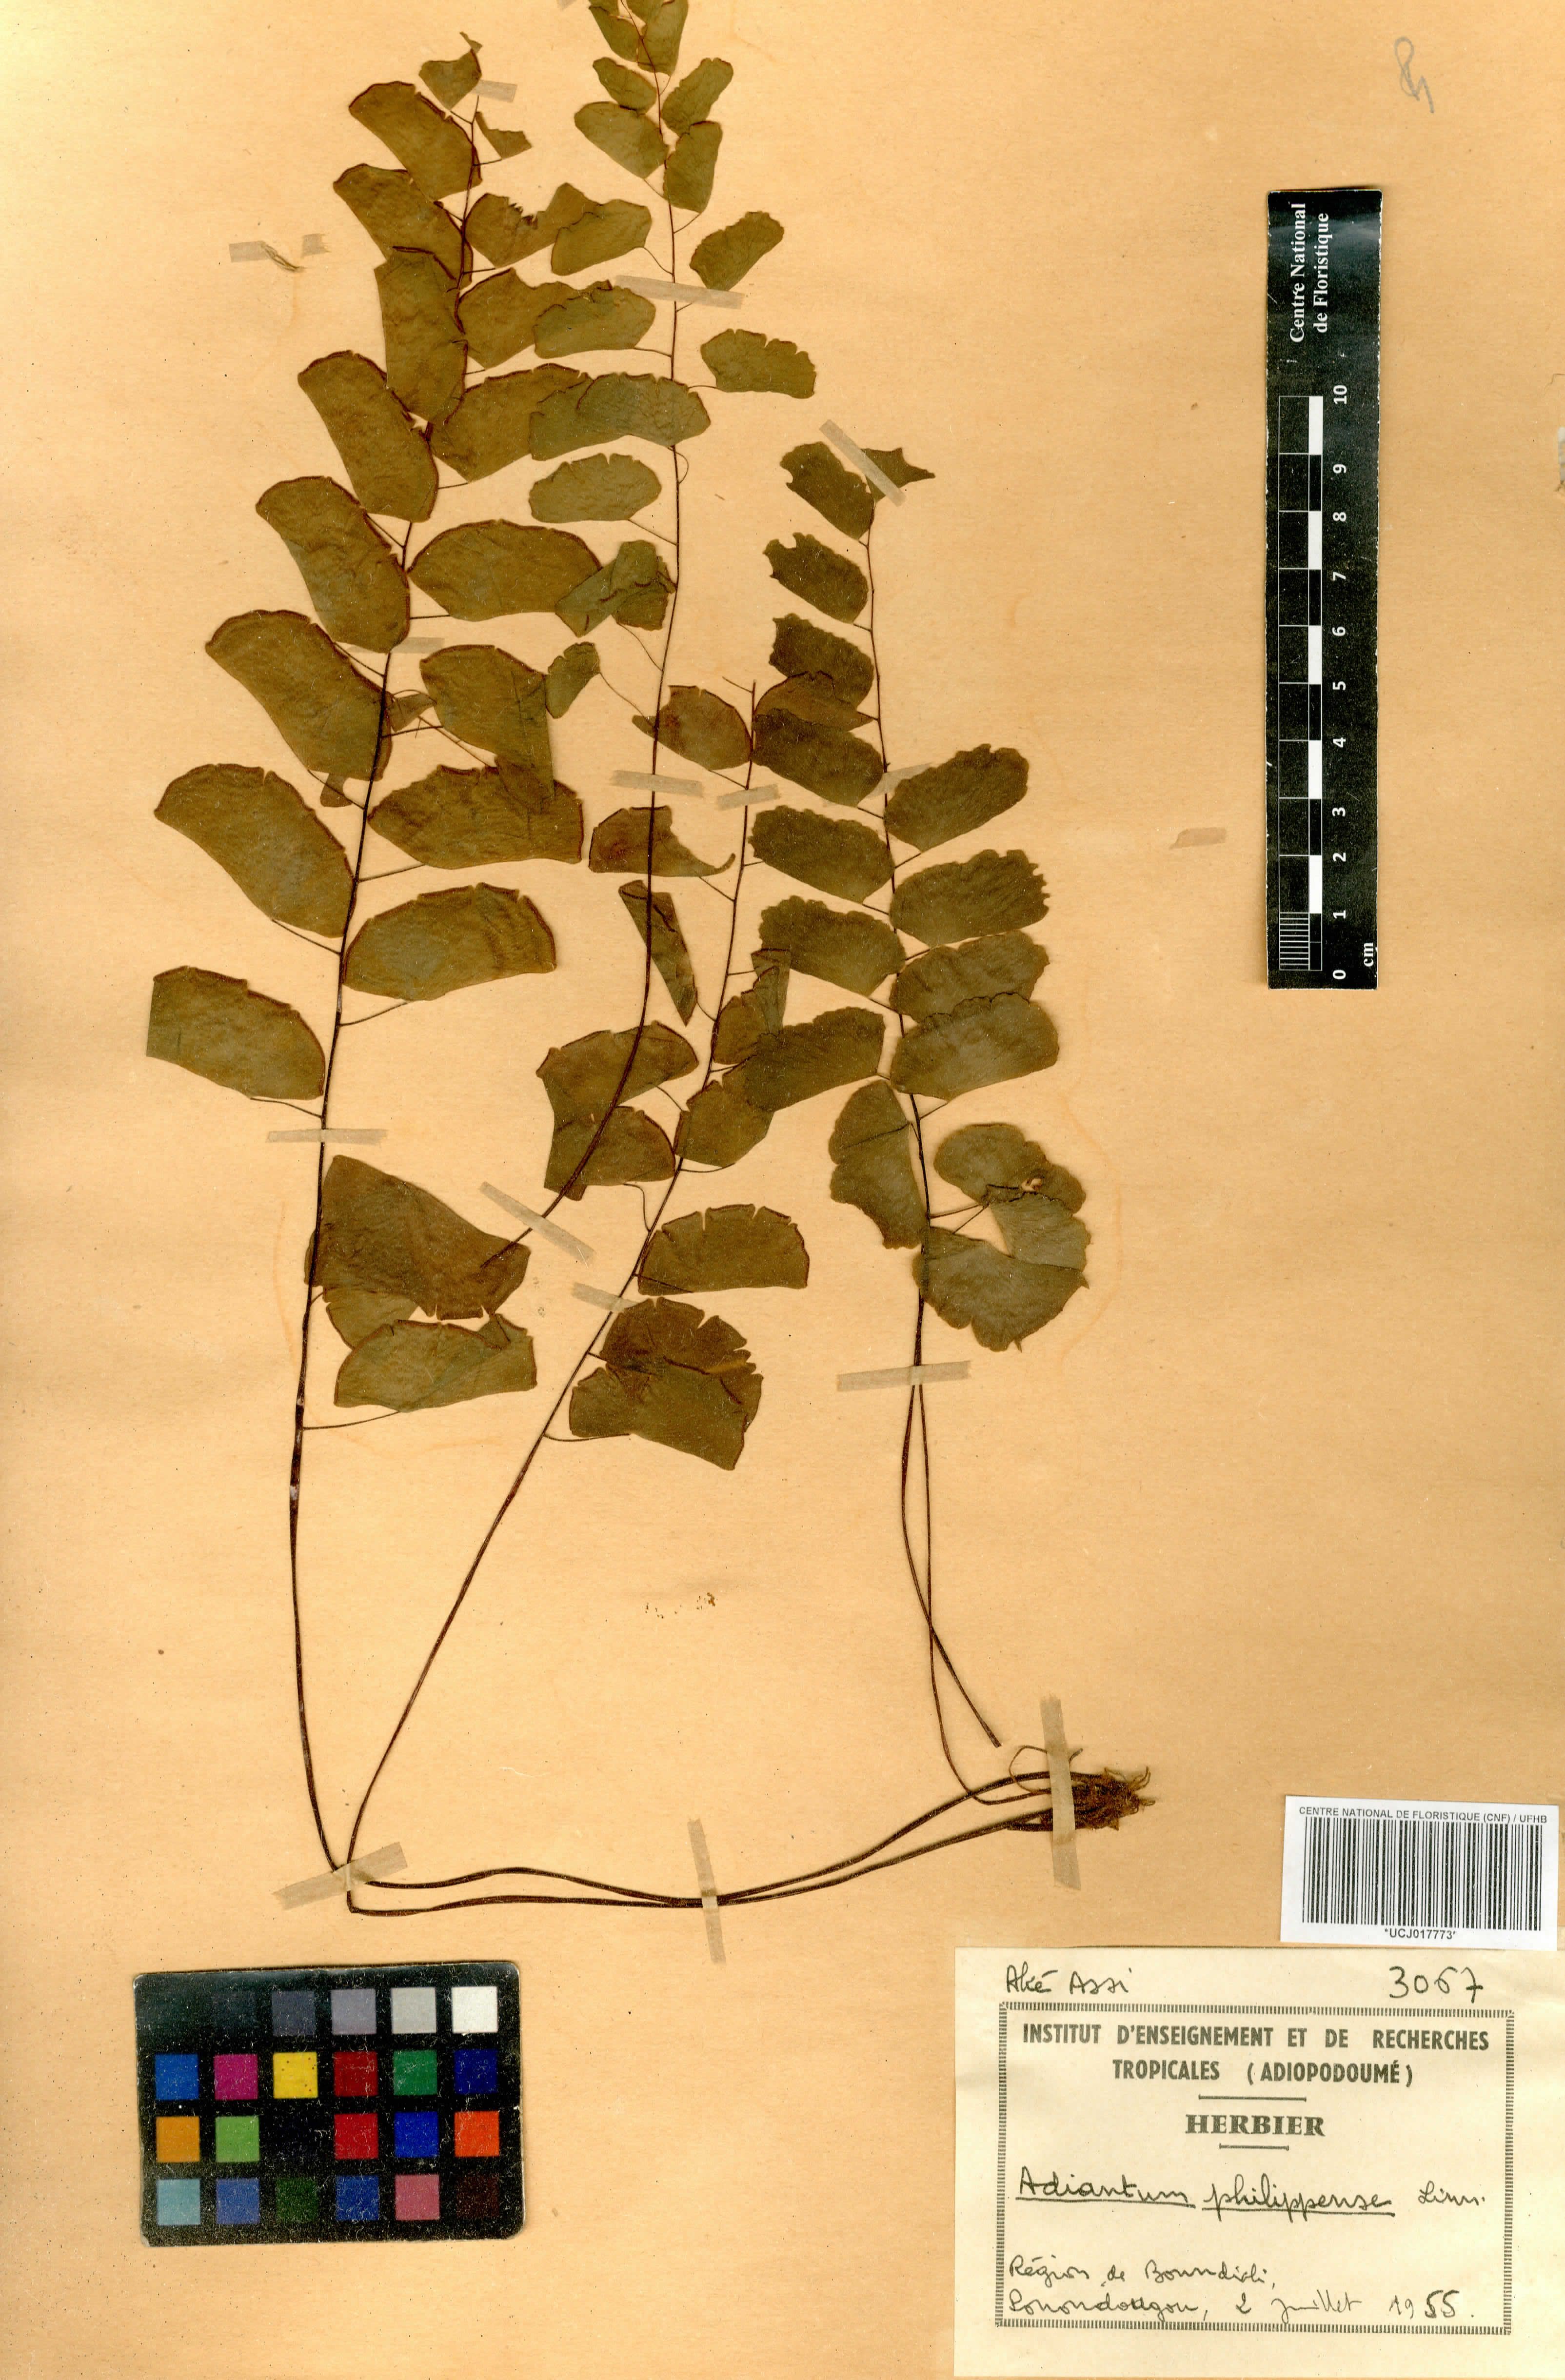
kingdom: Plantae
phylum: Tracheophyta
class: Polypodiopsida
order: Polypodiales
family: Pteridaceae
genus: Adiantum
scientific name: Adiantum philippense
